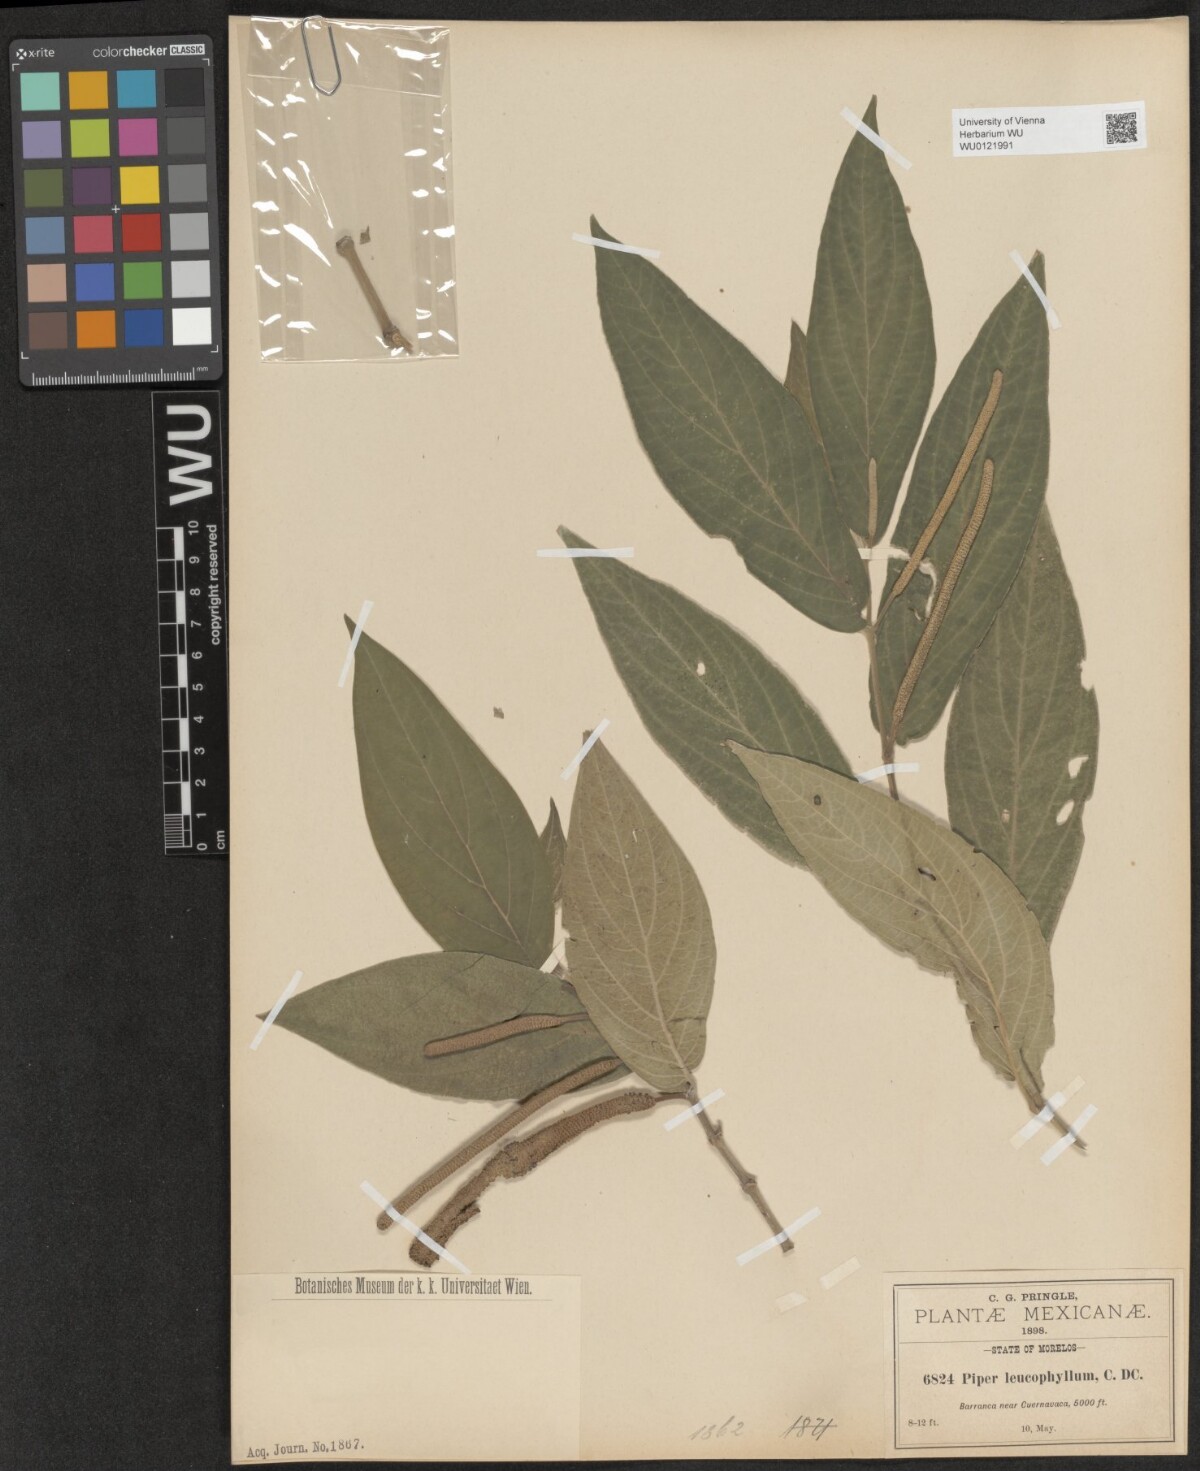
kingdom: Plantae
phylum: Tracheophyta
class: Magnoliopsida
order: Piperales
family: Piperaceae
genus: Piper
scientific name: Piper leucophyllum
